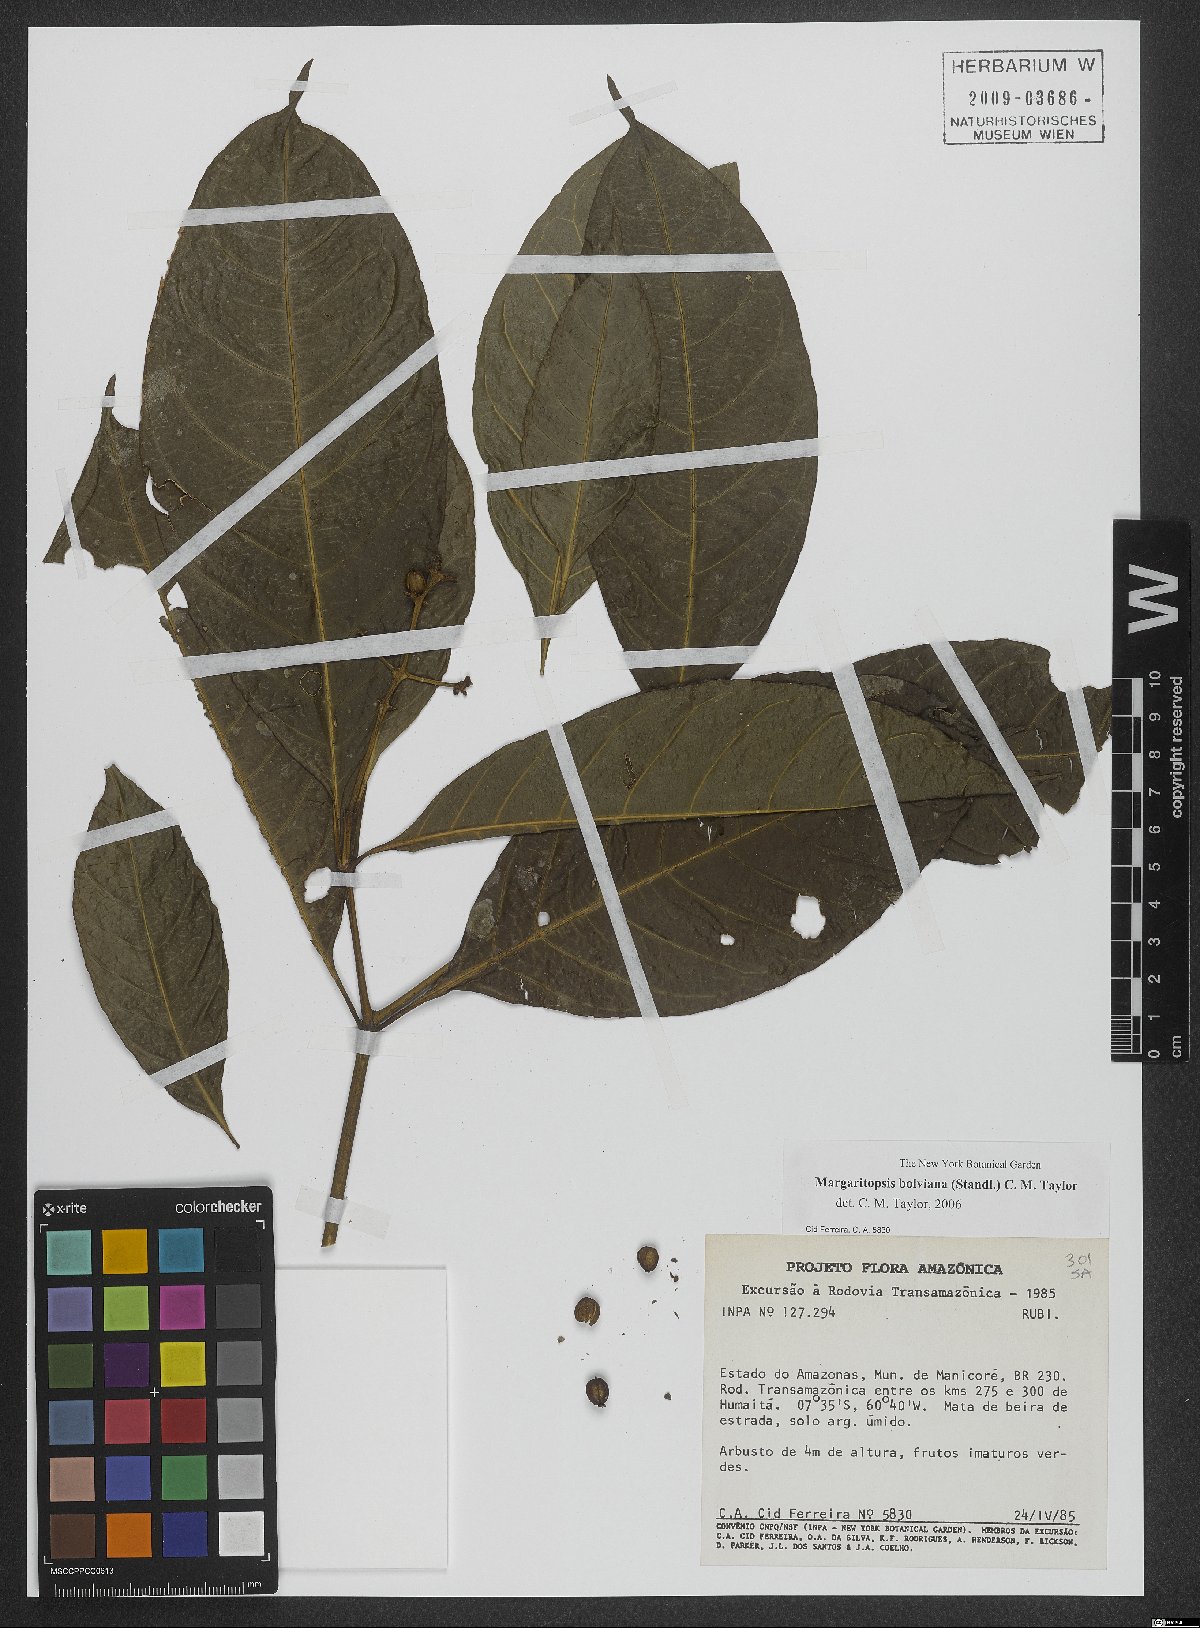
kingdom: Plantae
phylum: Tracheophyta
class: Magnoliopsida
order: Gentianales
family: Rubiaceae
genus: Eumachia
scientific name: Eumachia boliviana
